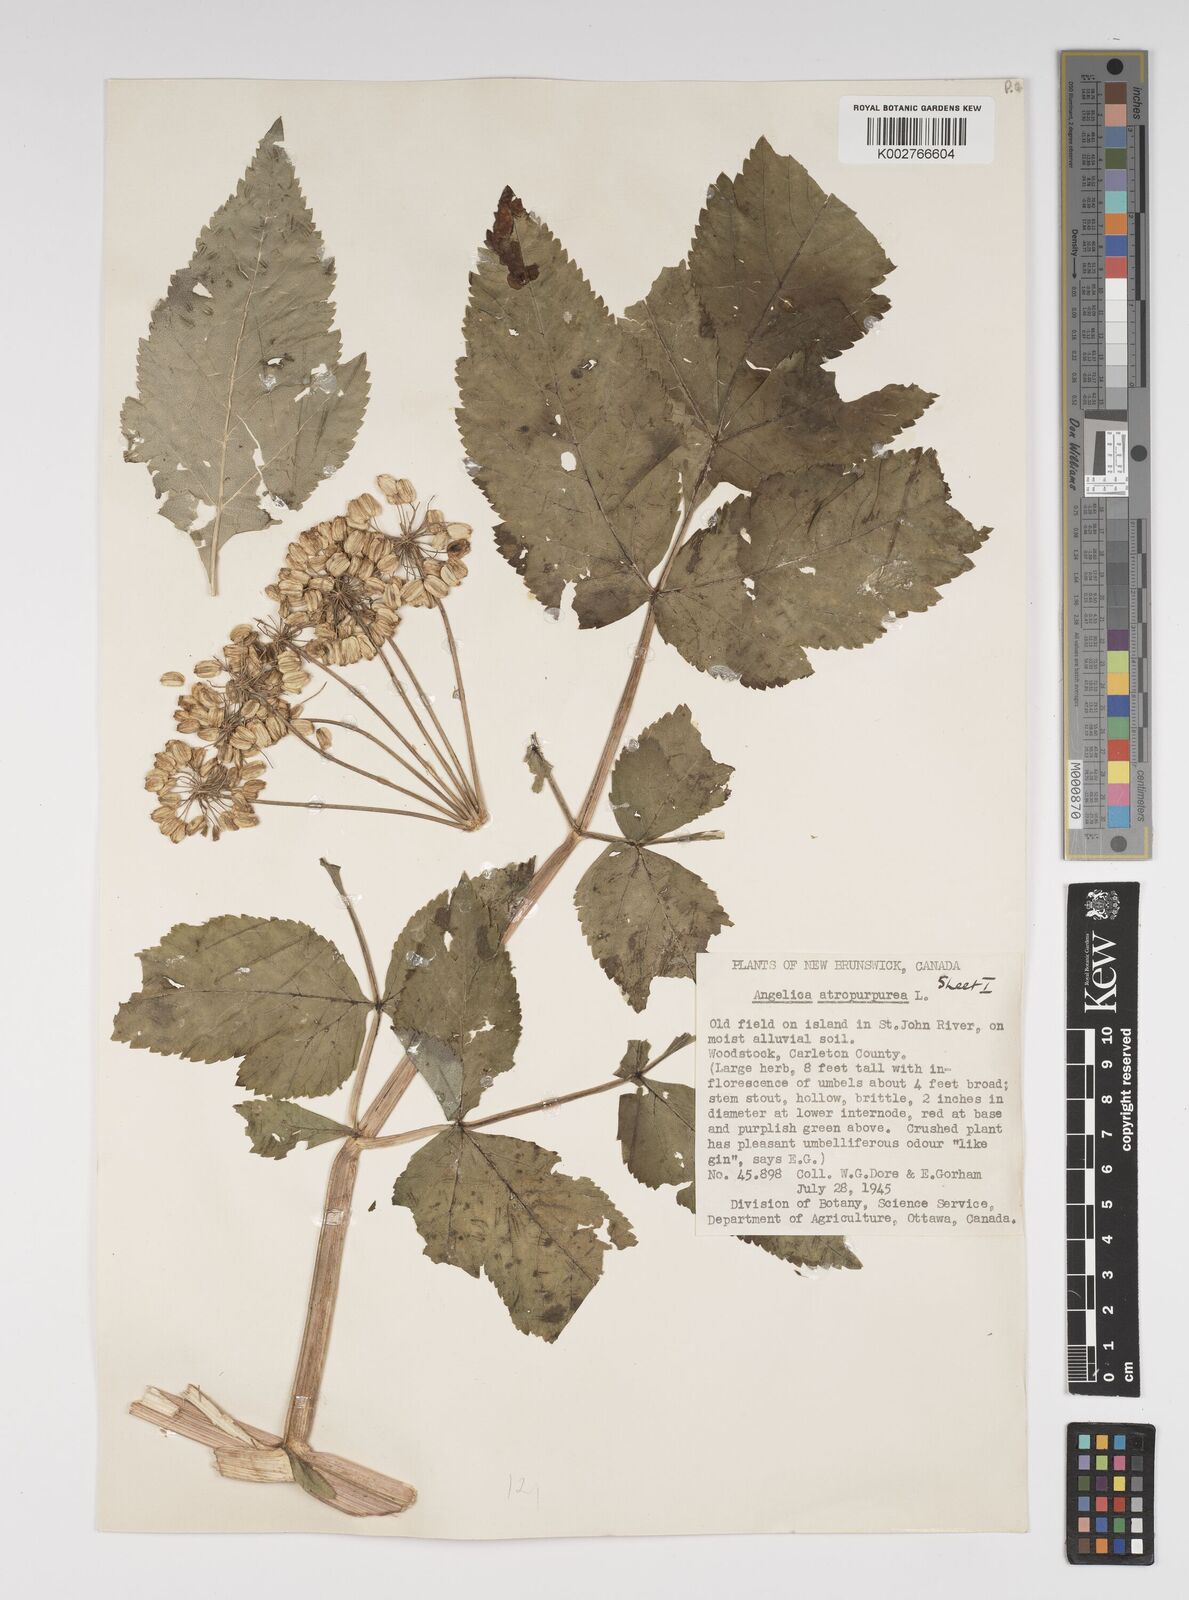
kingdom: Plantae
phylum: Tracheophyta
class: Magnoliopsida
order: Apiales
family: Apiaceae
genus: Angelica
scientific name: Angelica atropurpurea
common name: Great angelica
